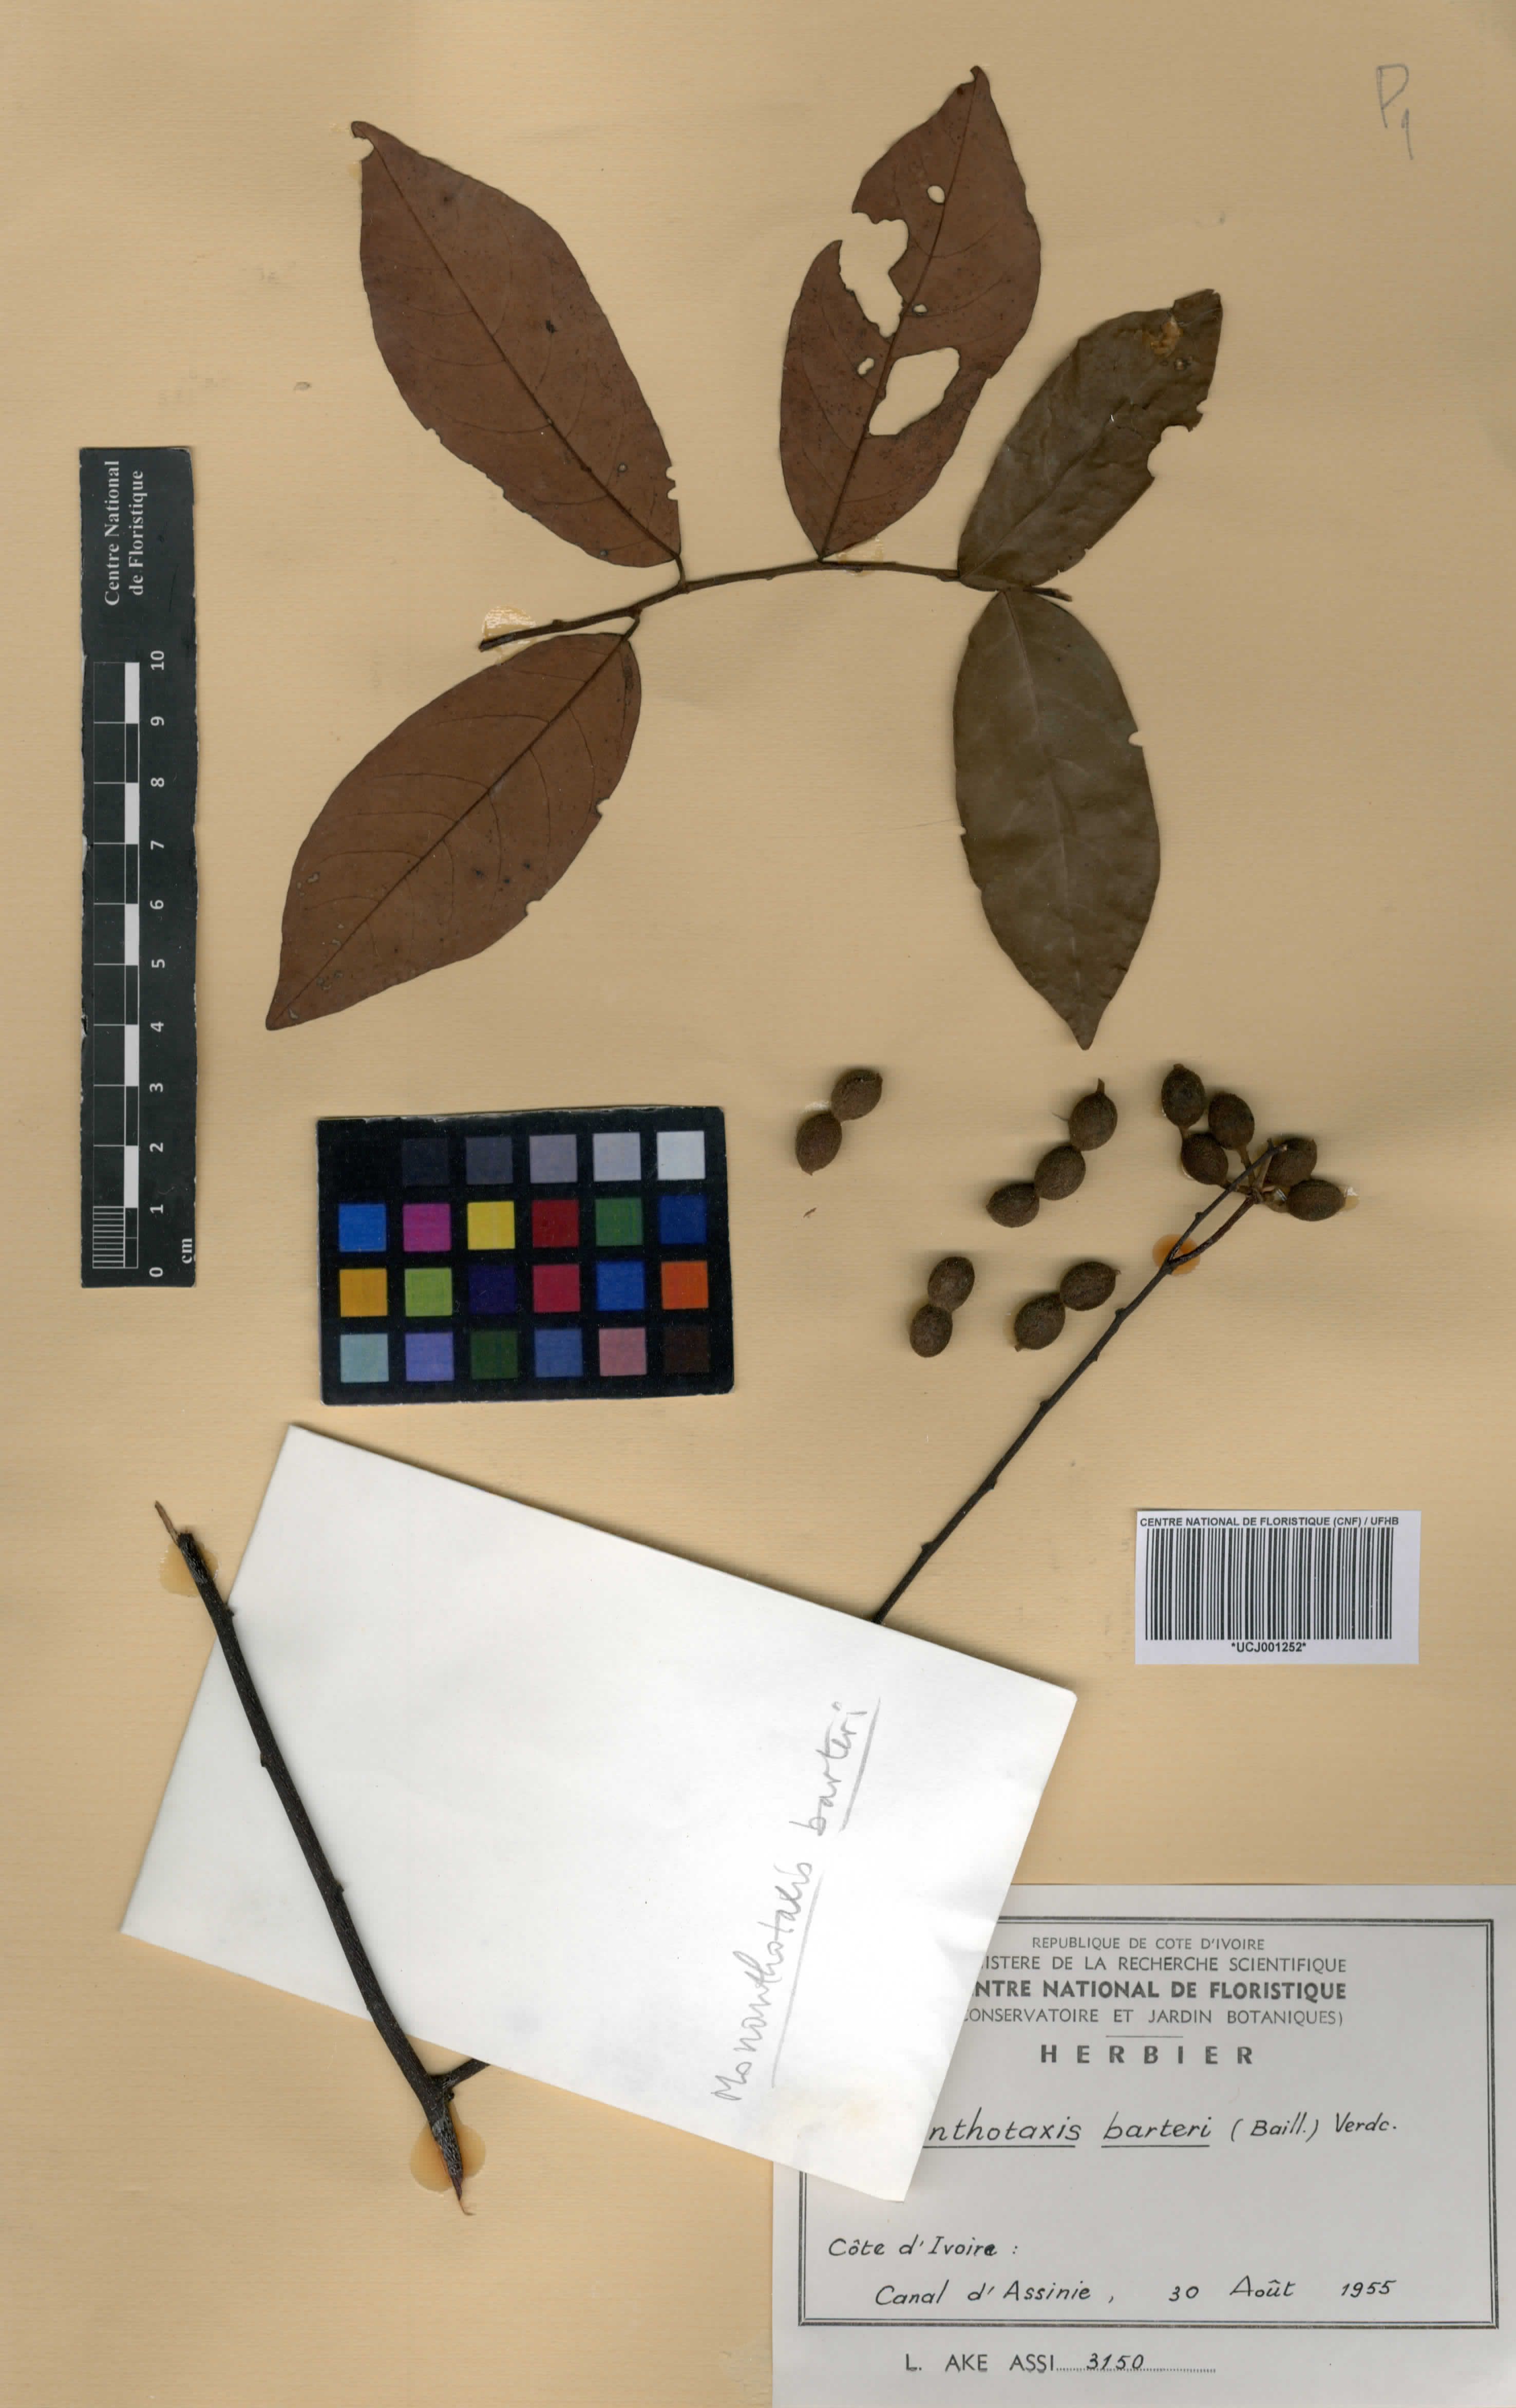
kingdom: Plantae
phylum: Tracheophyta
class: Magnoliopsida
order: Magnoliales
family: Annonaceae
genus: Monanthotaxis
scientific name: Monanthotaxis barteri
